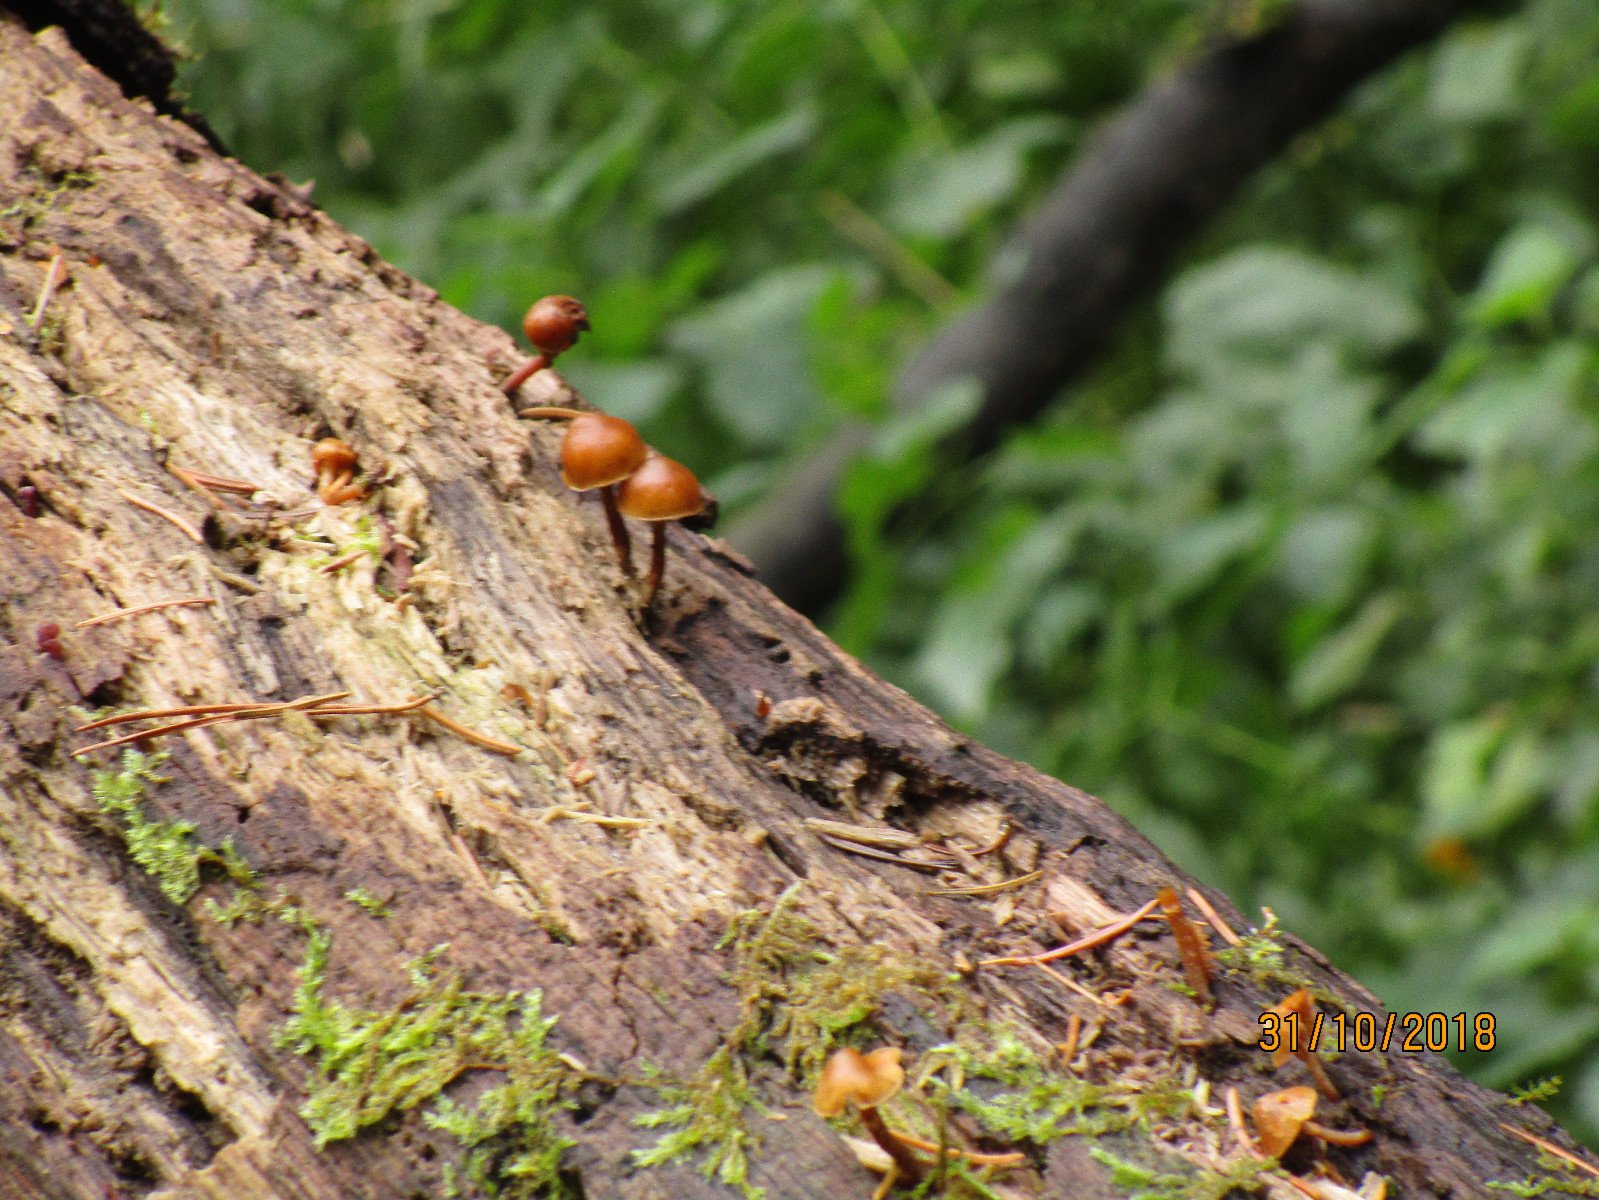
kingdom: Fungi
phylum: Basidiomycota
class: Agaricomycetes
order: Agaricales
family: Hymenogastraceae
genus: Galerina
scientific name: Galerina marginata
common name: randbæltet hjelmhat
